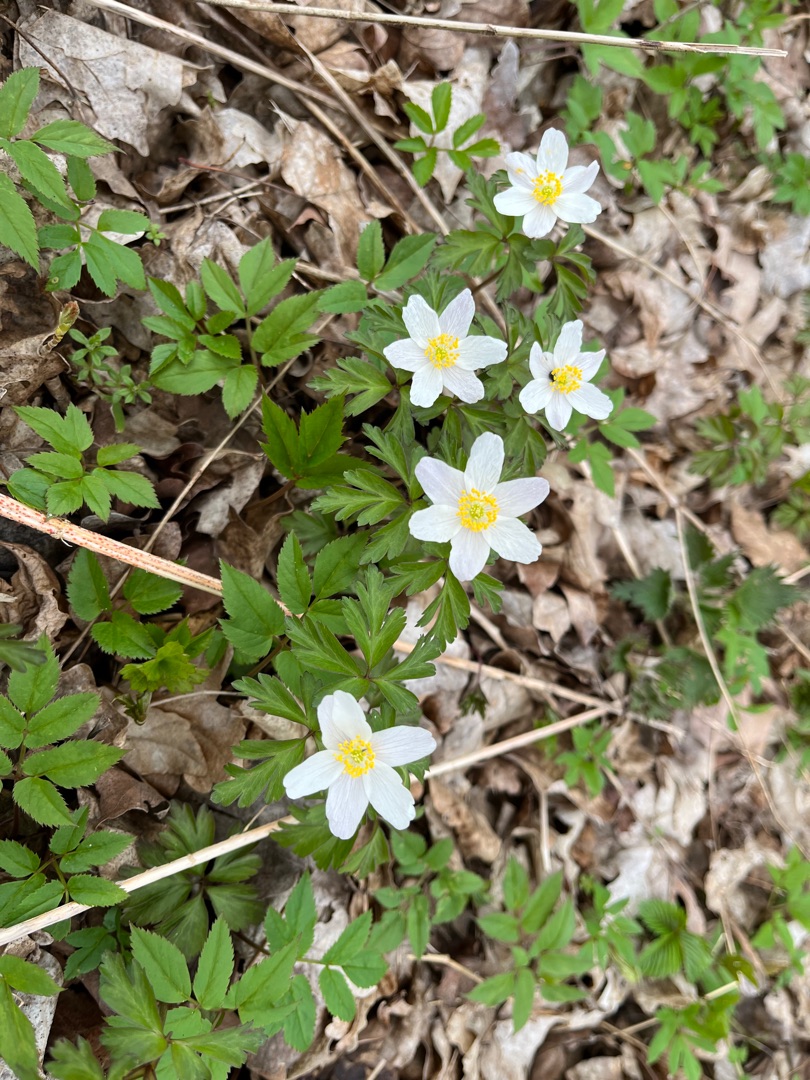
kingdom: Plantae
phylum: Tracheophyta
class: Magnoliopsida
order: Ranunculales
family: Ranunculaceae
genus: Anemone
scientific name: Anemone nemorosa
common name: Hvid anemone
